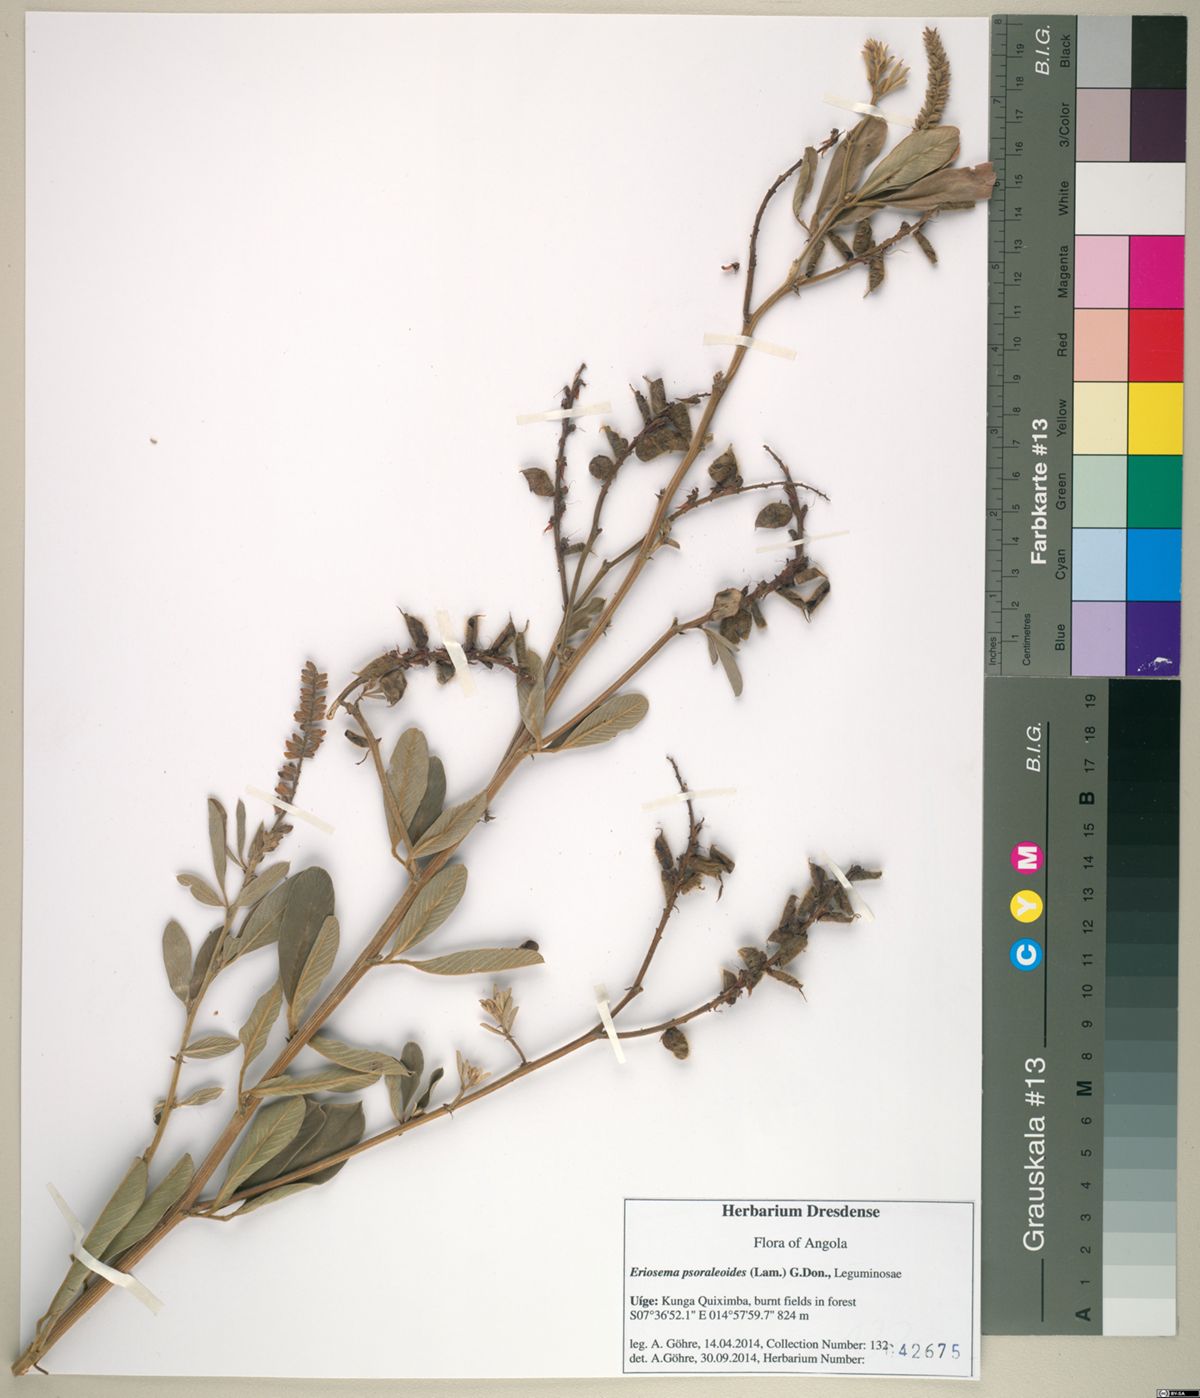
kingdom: Plantae
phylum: Tracheophyta
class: Magnoliopsida
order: Fabales
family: Fabaceae
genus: Eriosema
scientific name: Eriosema psoraleoides
